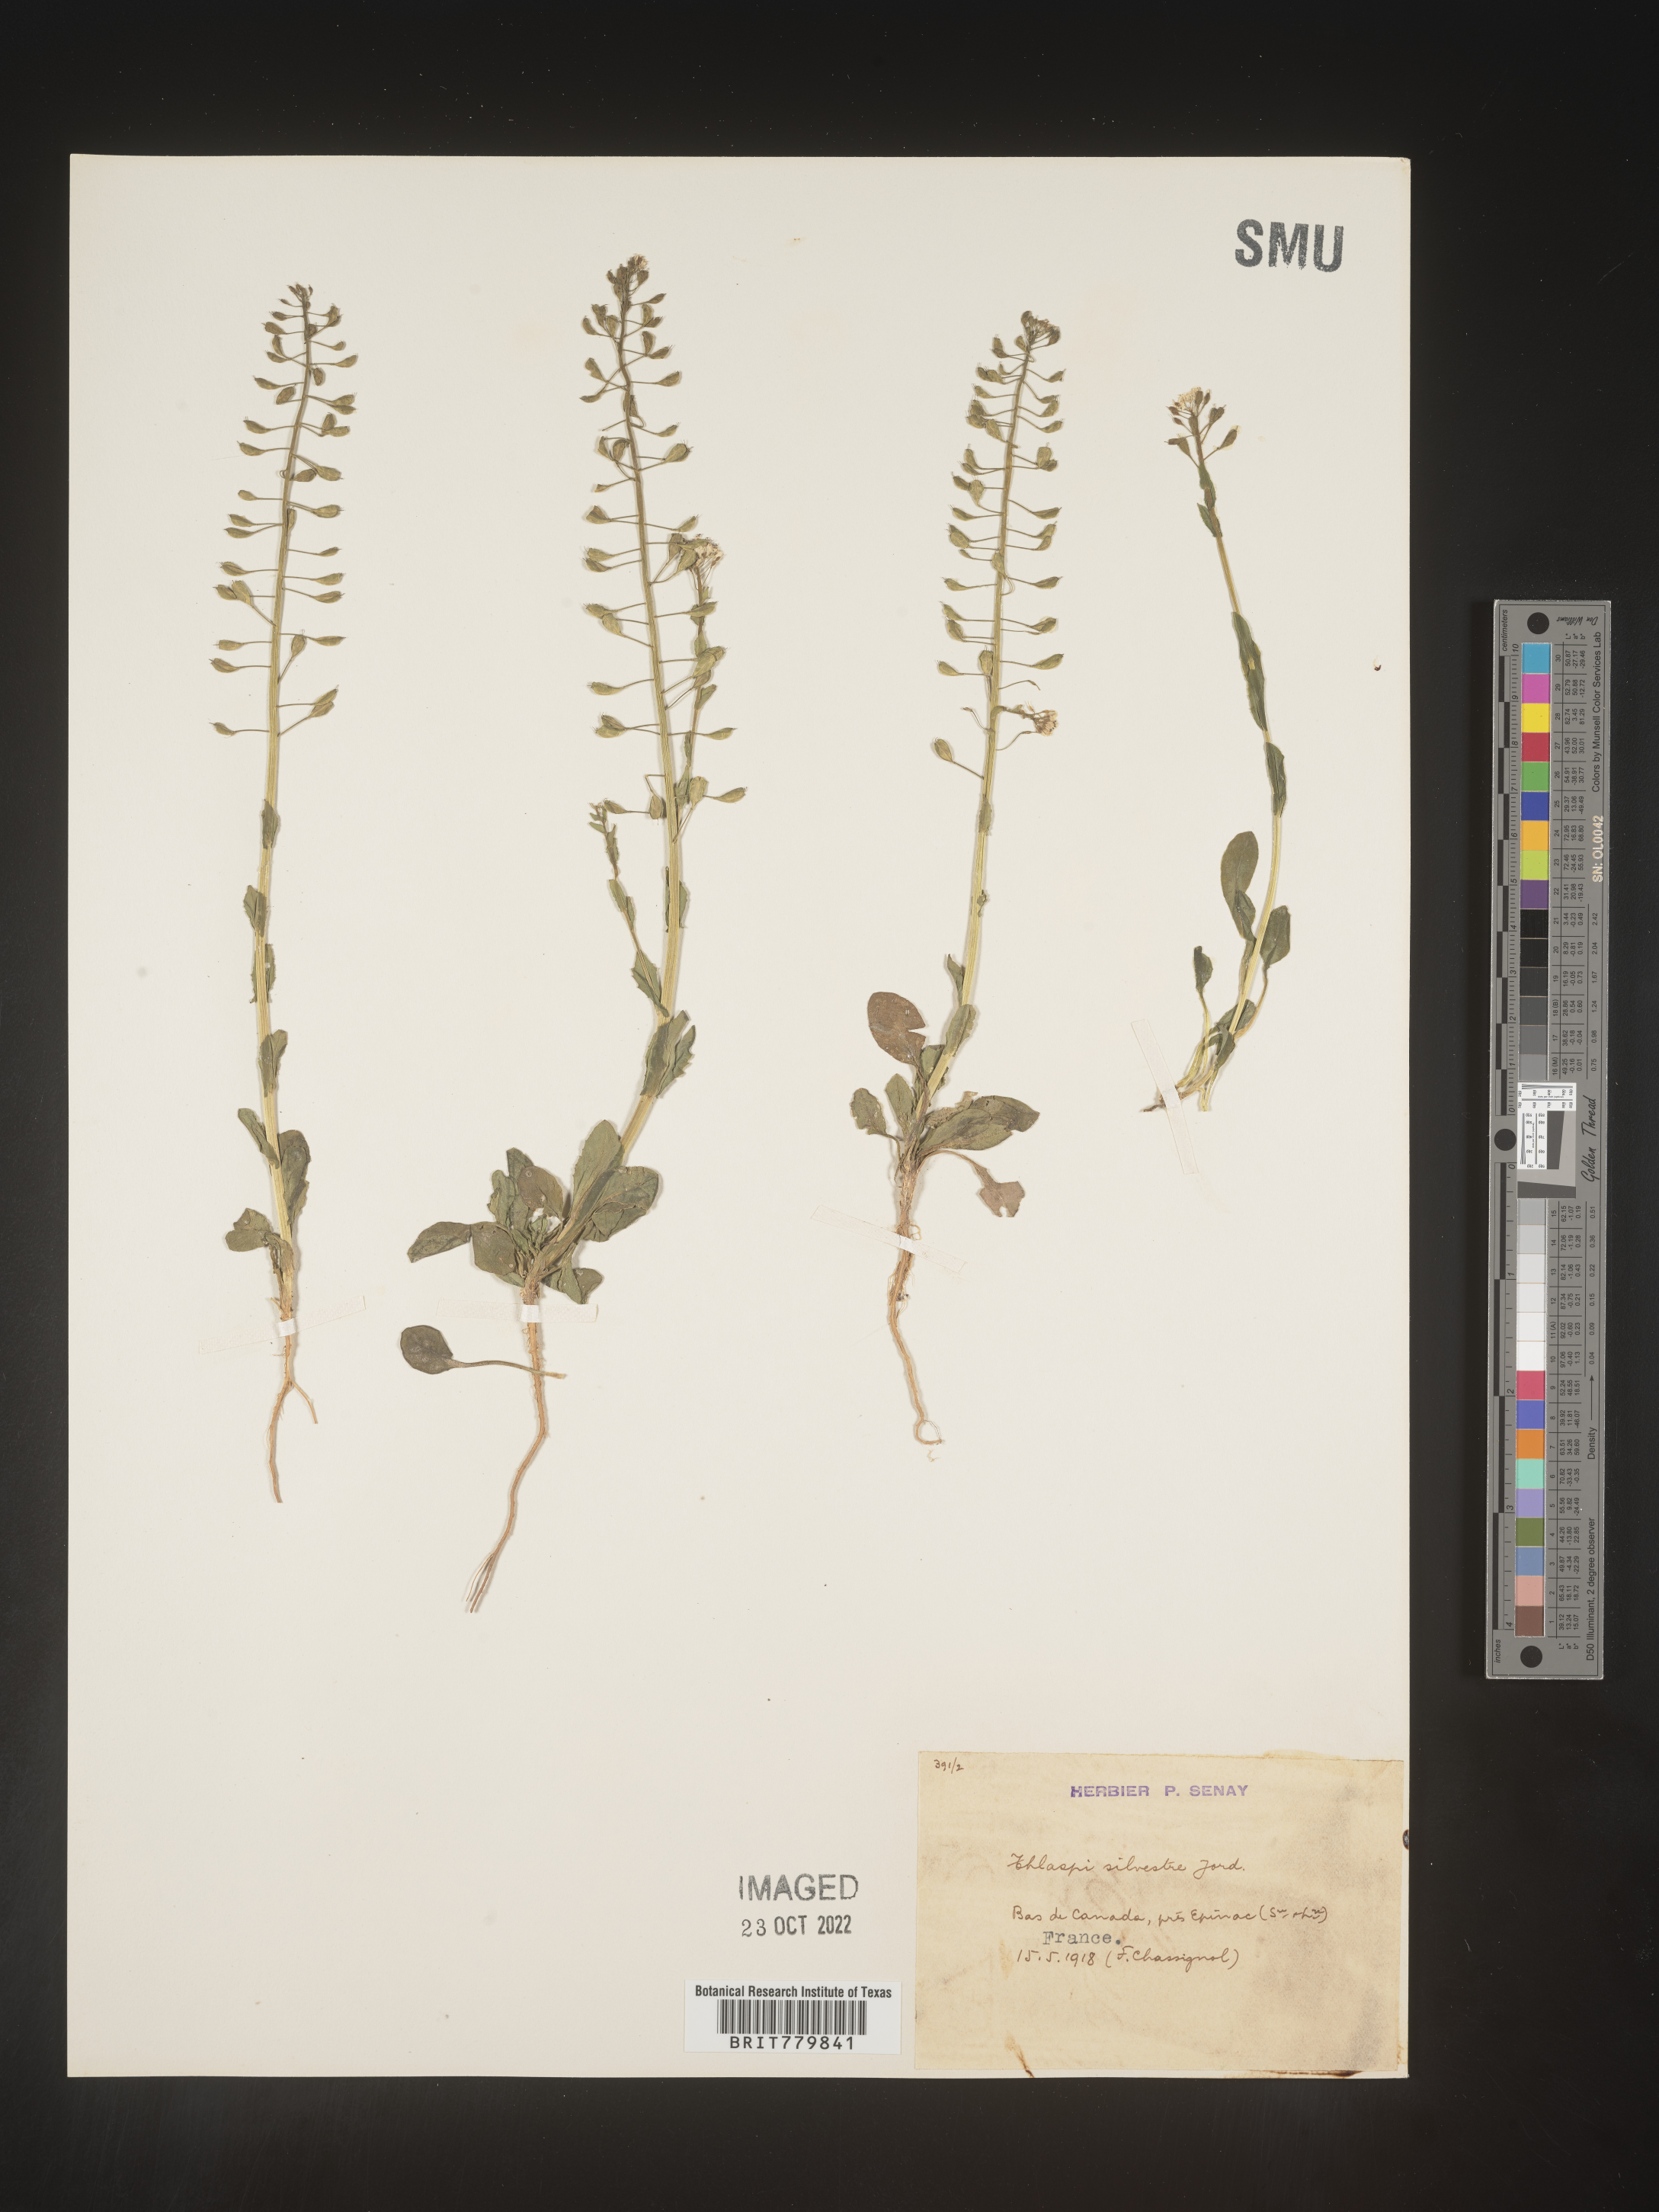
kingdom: Plantae
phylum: Tracheophyta
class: Magnoliopsida
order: Brassicales
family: Brassicaceae
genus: Thlaspi
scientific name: Thlaspi
